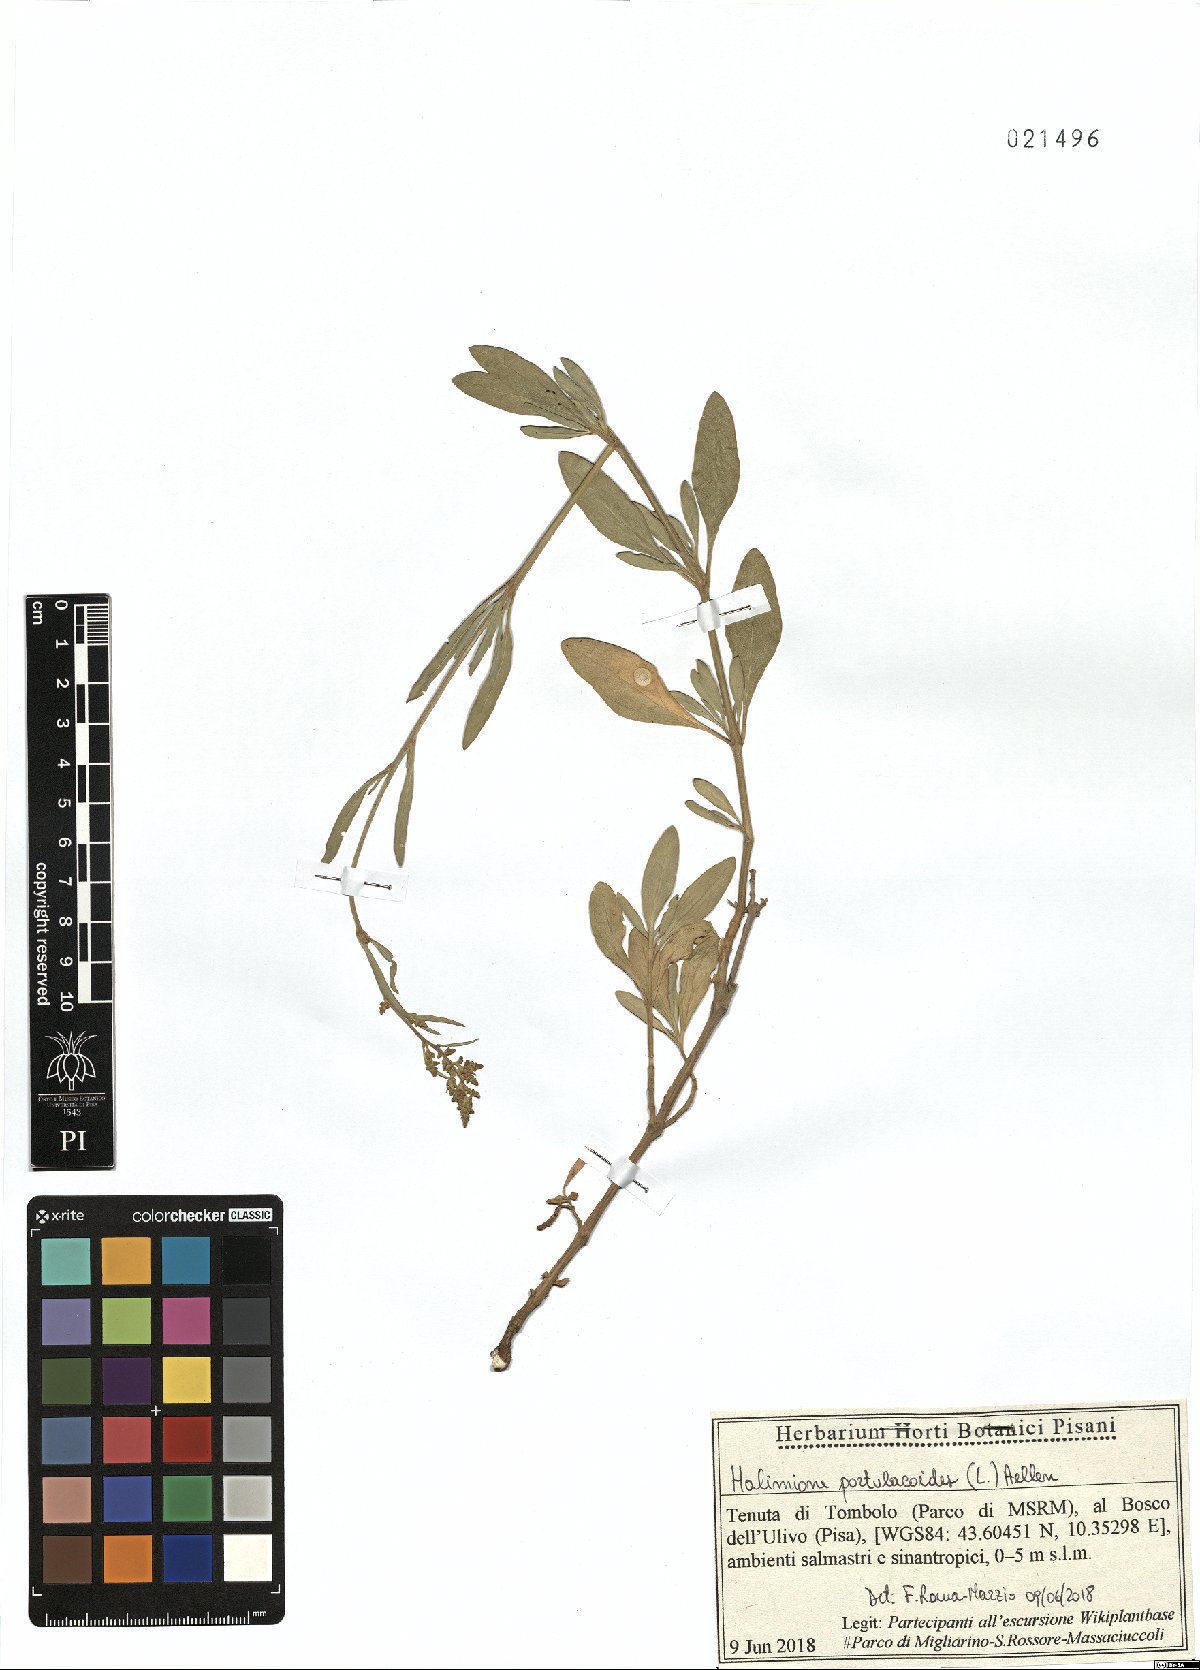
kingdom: Plantae
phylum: Tracheophyta
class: Magnoliopsida
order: Caryophyllales
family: Amaranthaceae
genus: Halimione
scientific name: Halimione portulacoides
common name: Sea-purslane
